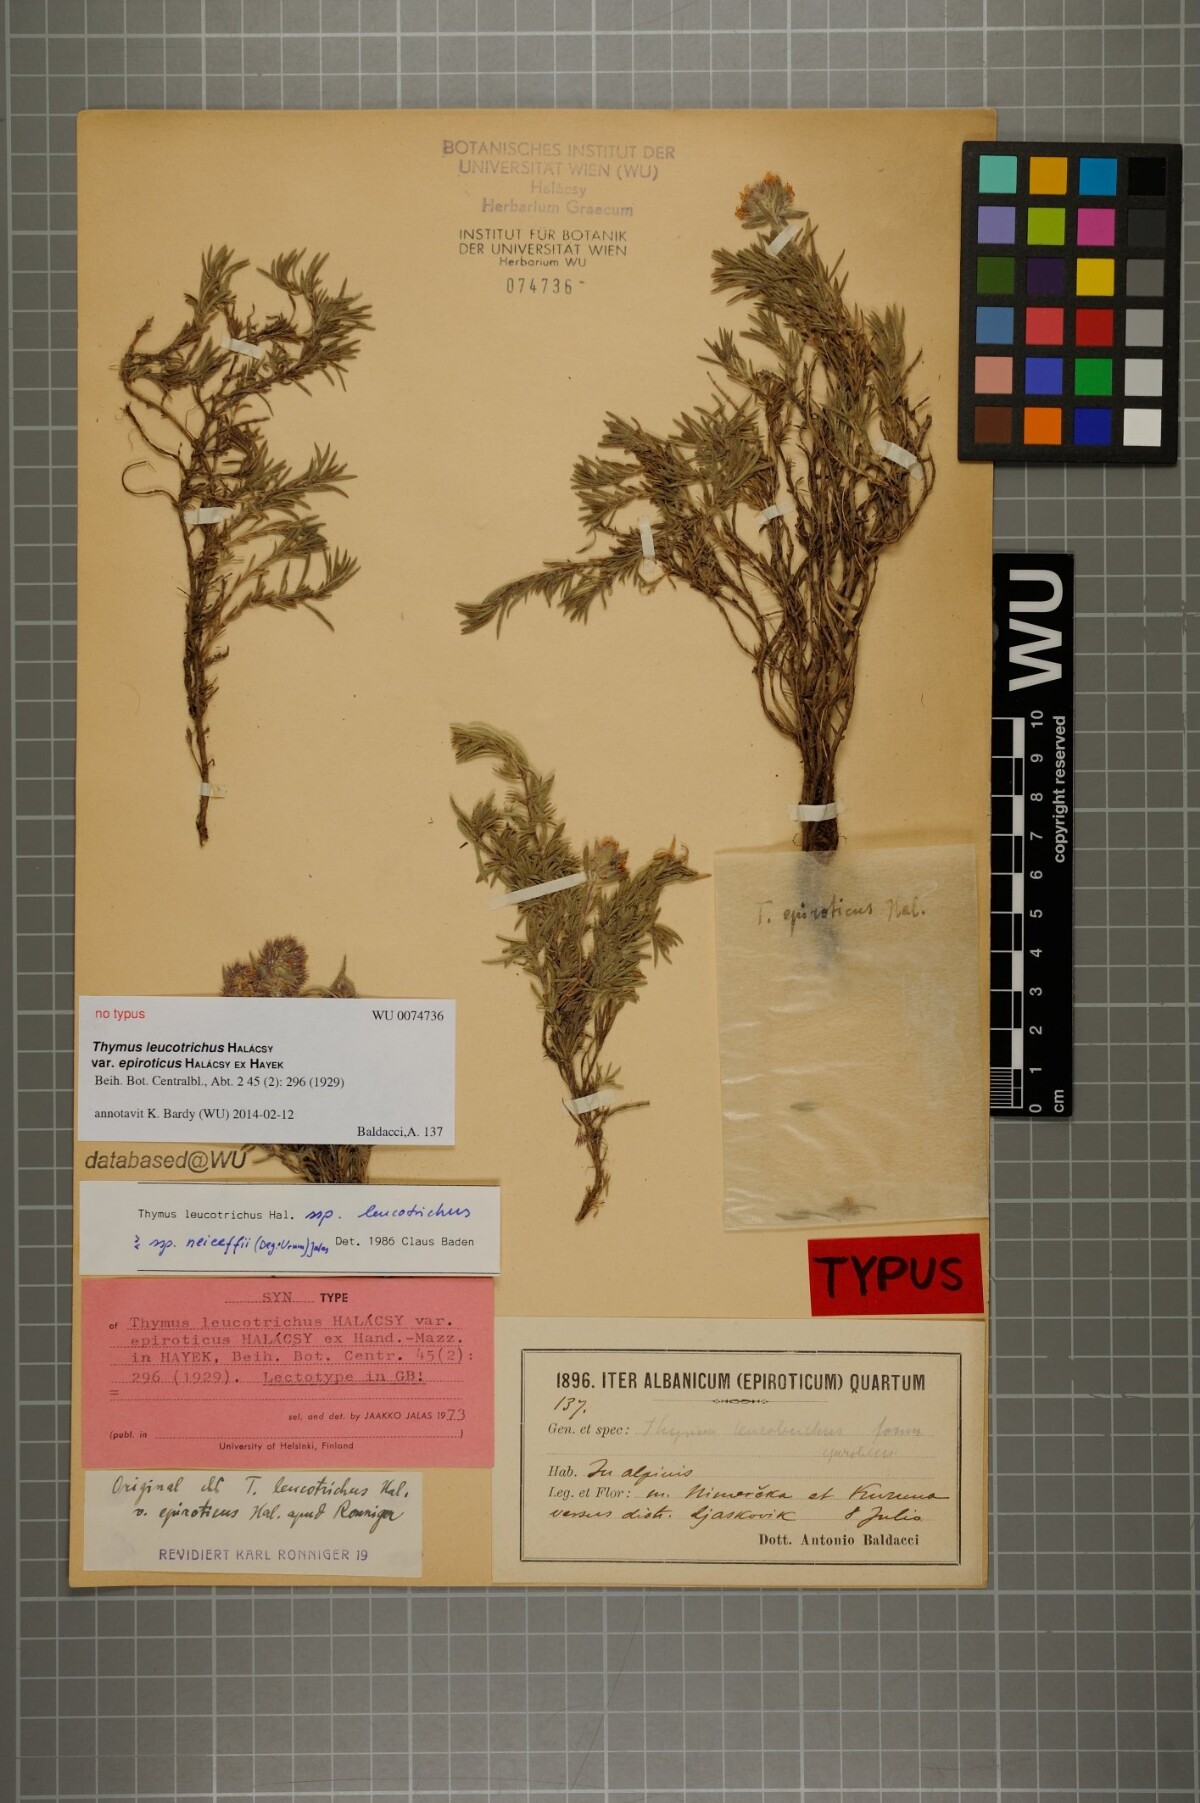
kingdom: Plantae
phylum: Tracheophyta
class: Magnoliopsida
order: Lamiales
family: Lamiaceae
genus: Thymus
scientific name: Thymus leucotrichus
